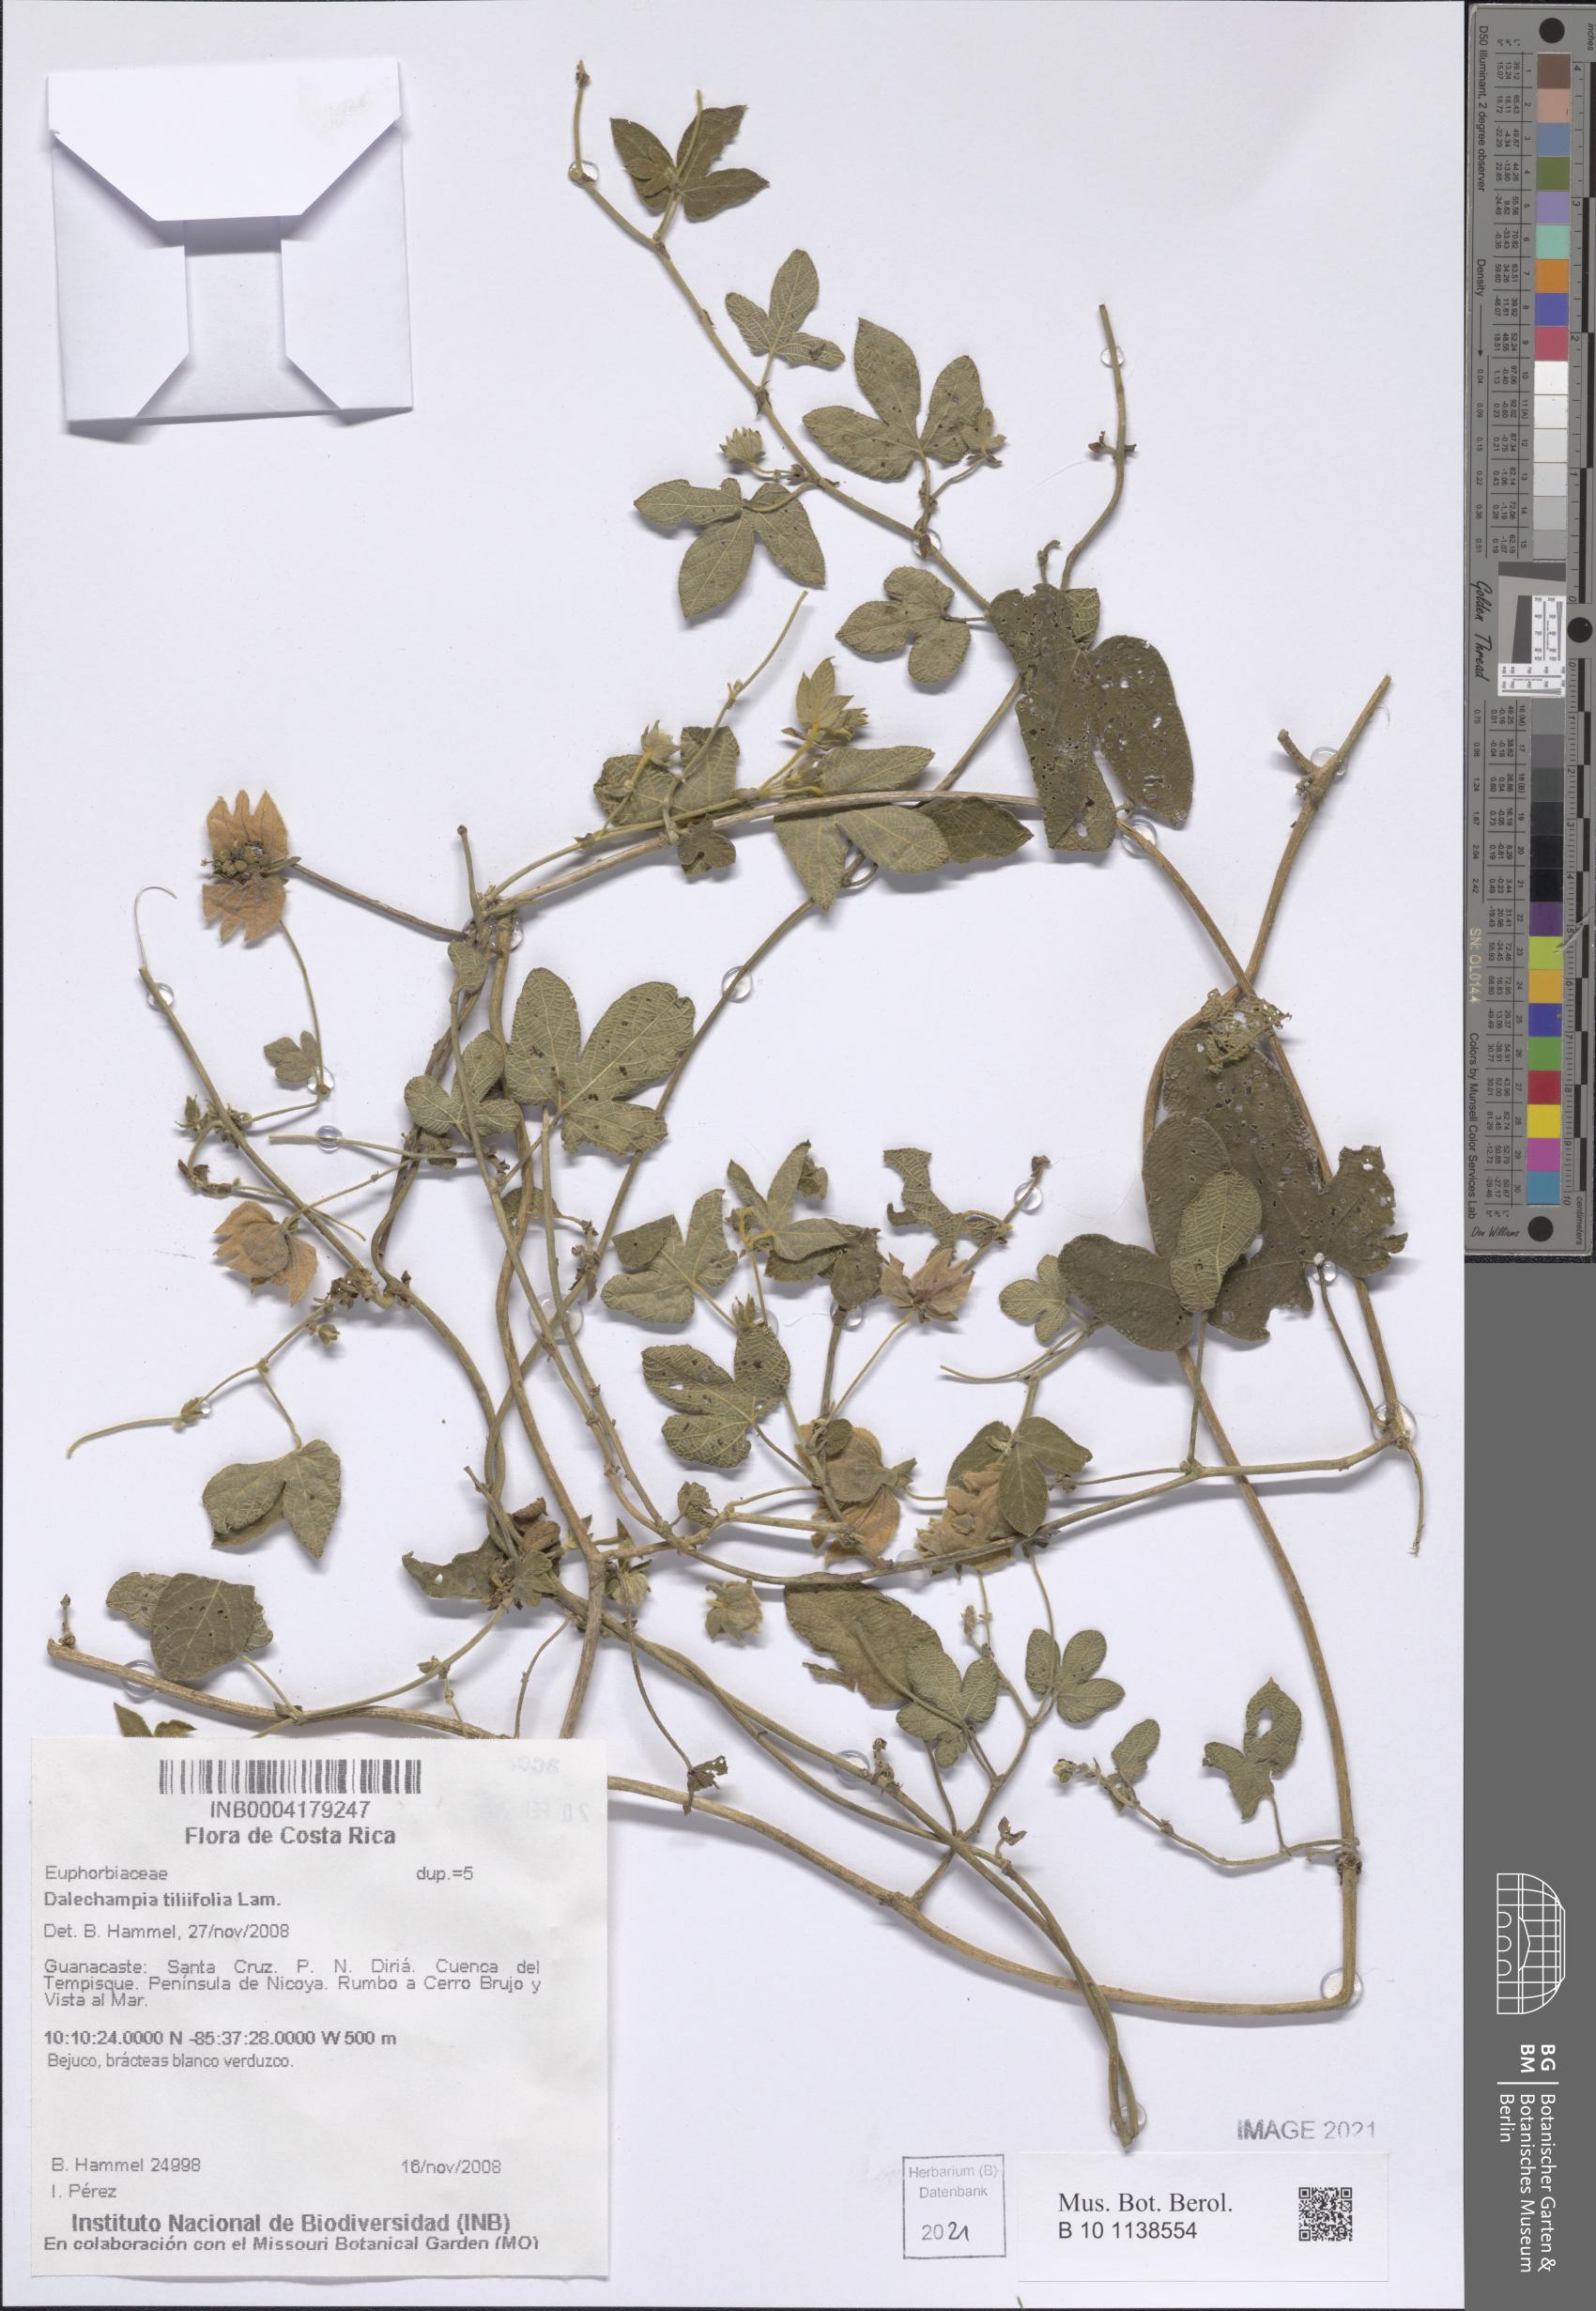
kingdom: Plantae
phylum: Tracheophyta
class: Magnoliopsida
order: Malpighiales
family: Euphorbiaceae
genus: Dalechampia
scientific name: Dalechampia scandens
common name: Spurgecreeper
